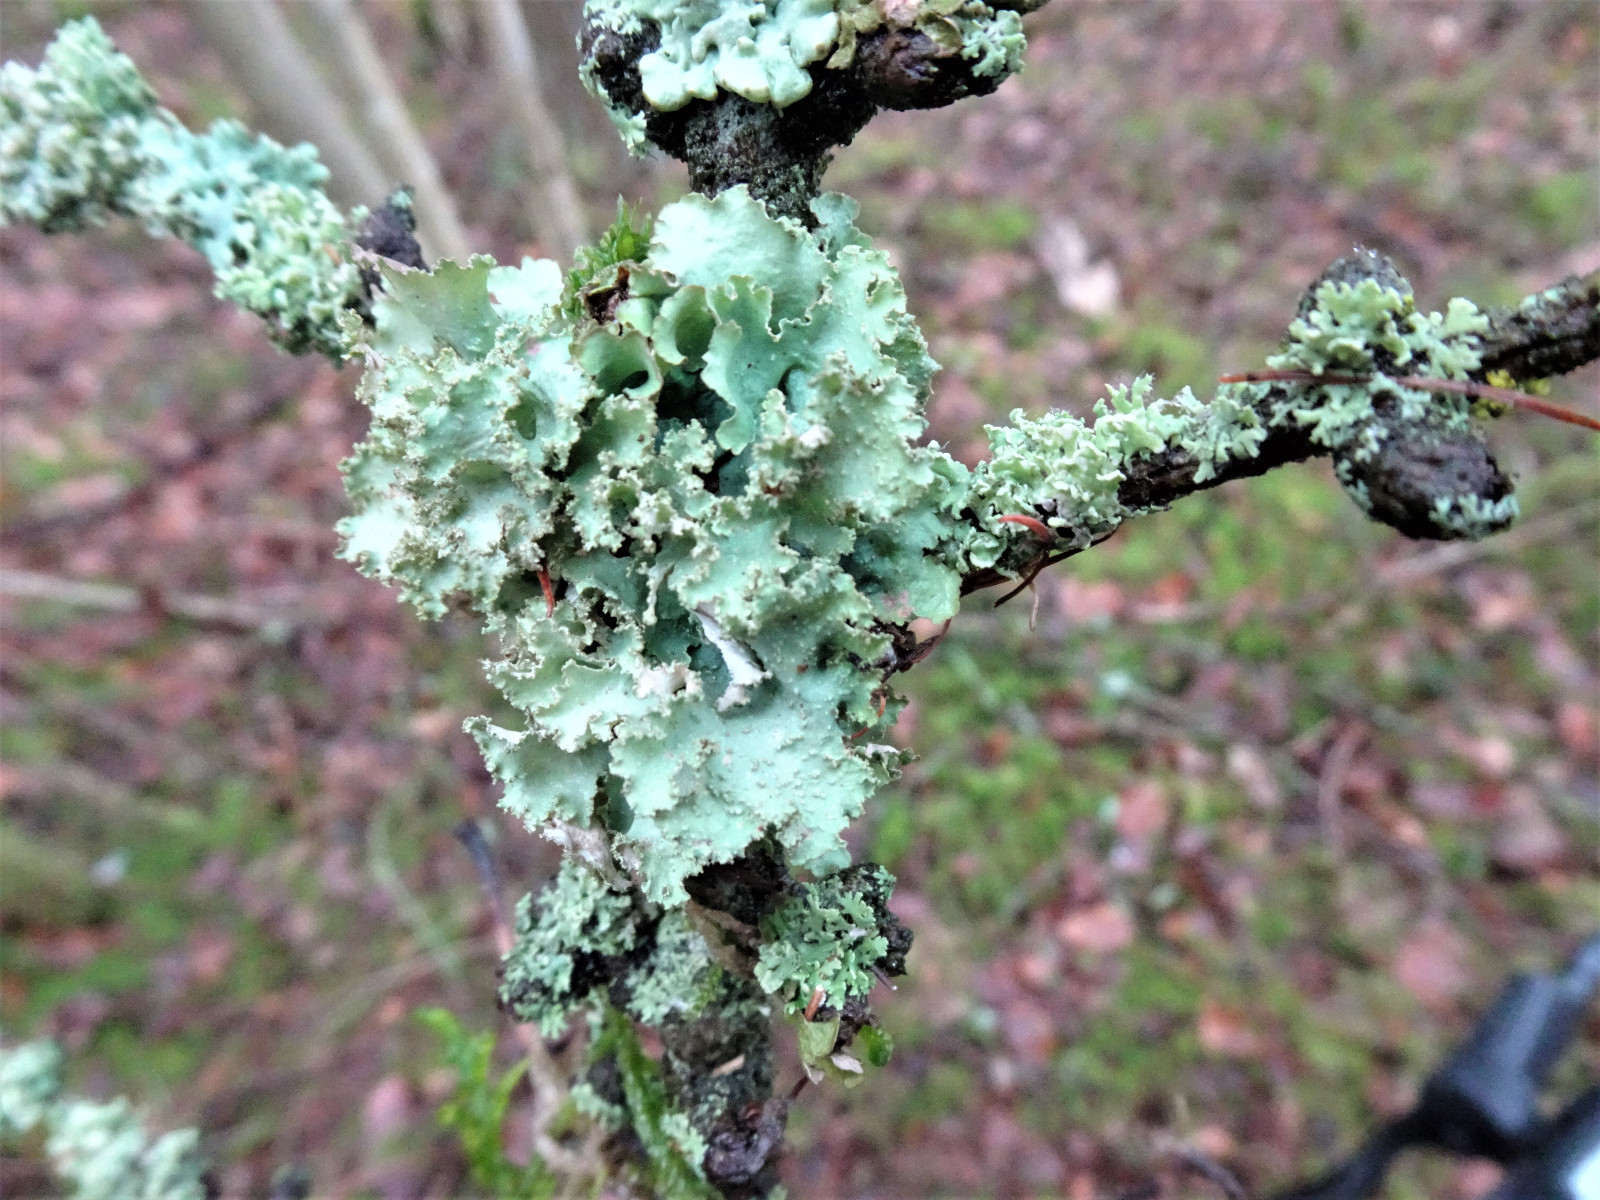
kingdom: Fungi
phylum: Ascomycota
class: Lecanoromycetes
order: Lecanorales
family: Parmeliaceae
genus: Platismatia
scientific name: Platismatia glauca
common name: blågrå papirlav
